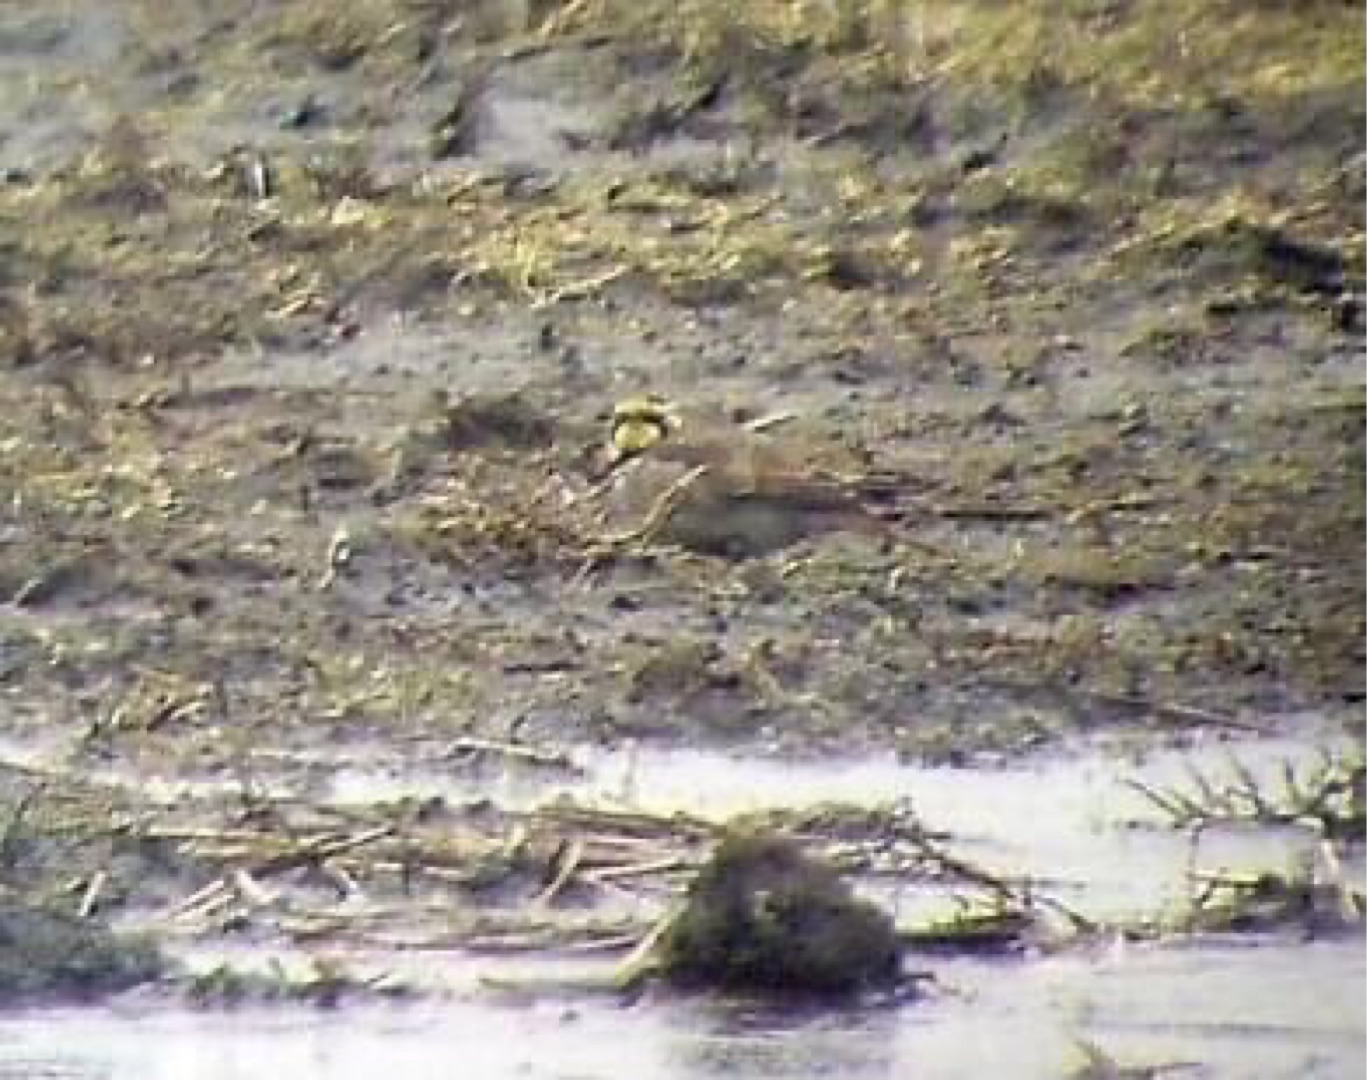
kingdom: Animalia
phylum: Chordata
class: Aves
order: Passeriformes
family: Alaudidae
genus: Eremophila
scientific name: Eremophila alpestris
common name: Bjerglærke
